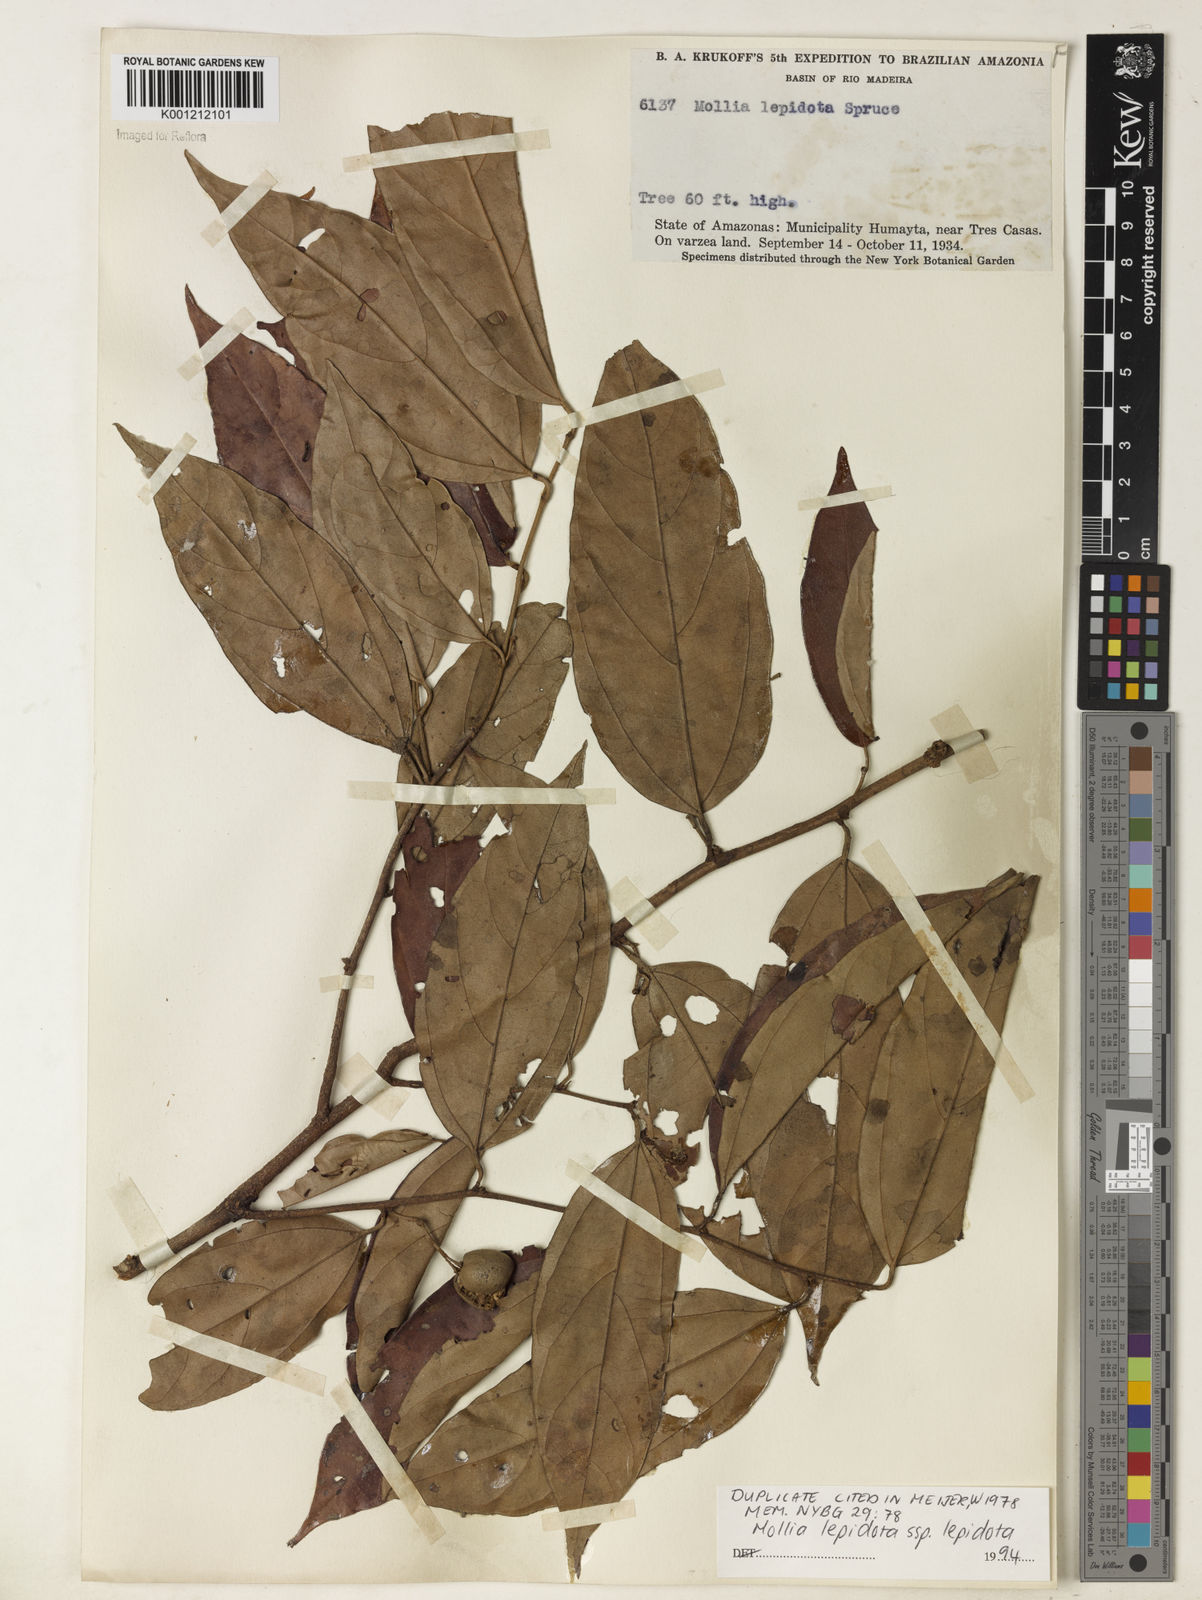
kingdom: Plantae
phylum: Tracheophyta
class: Magnoliopsida
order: Malvales
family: Malvaceae
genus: Mollia
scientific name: Mollia lepidota
